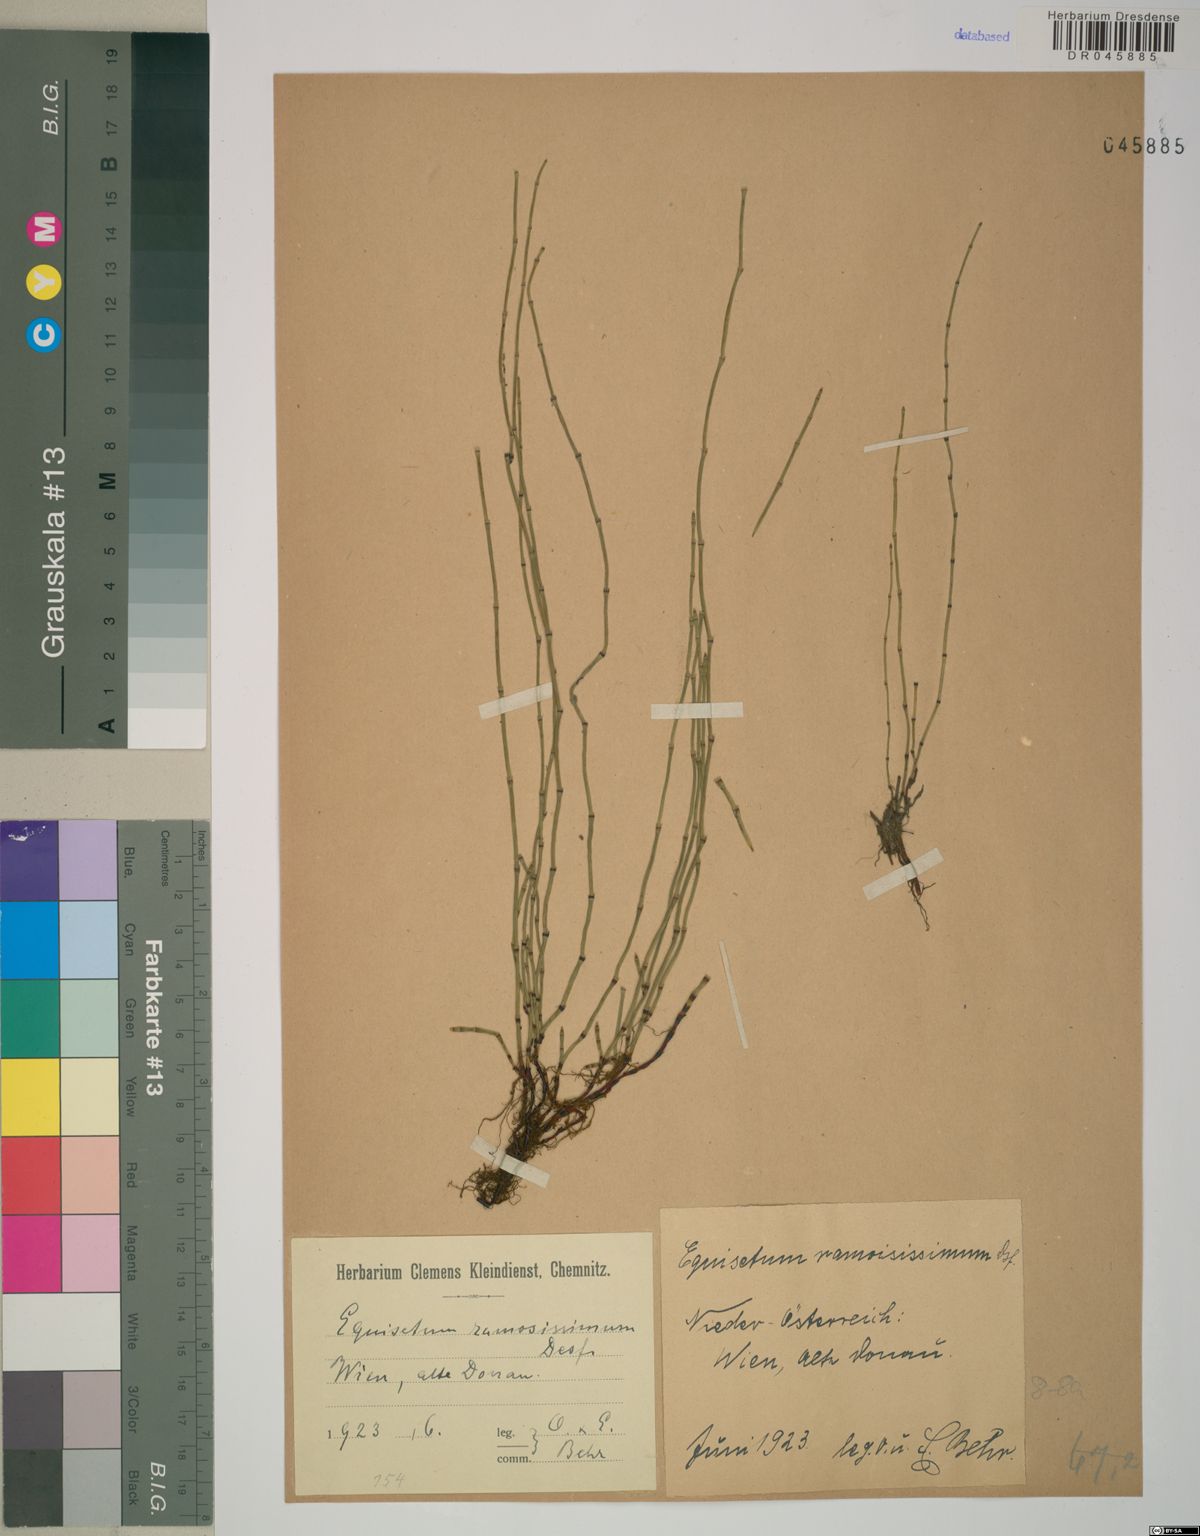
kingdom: Plantae
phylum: Tracheophyta
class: Polypodiopsida
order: Equisetales
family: Equisetaceae
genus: Equisetum
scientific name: Equisetum ramosissimum
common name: Branched horsetail
